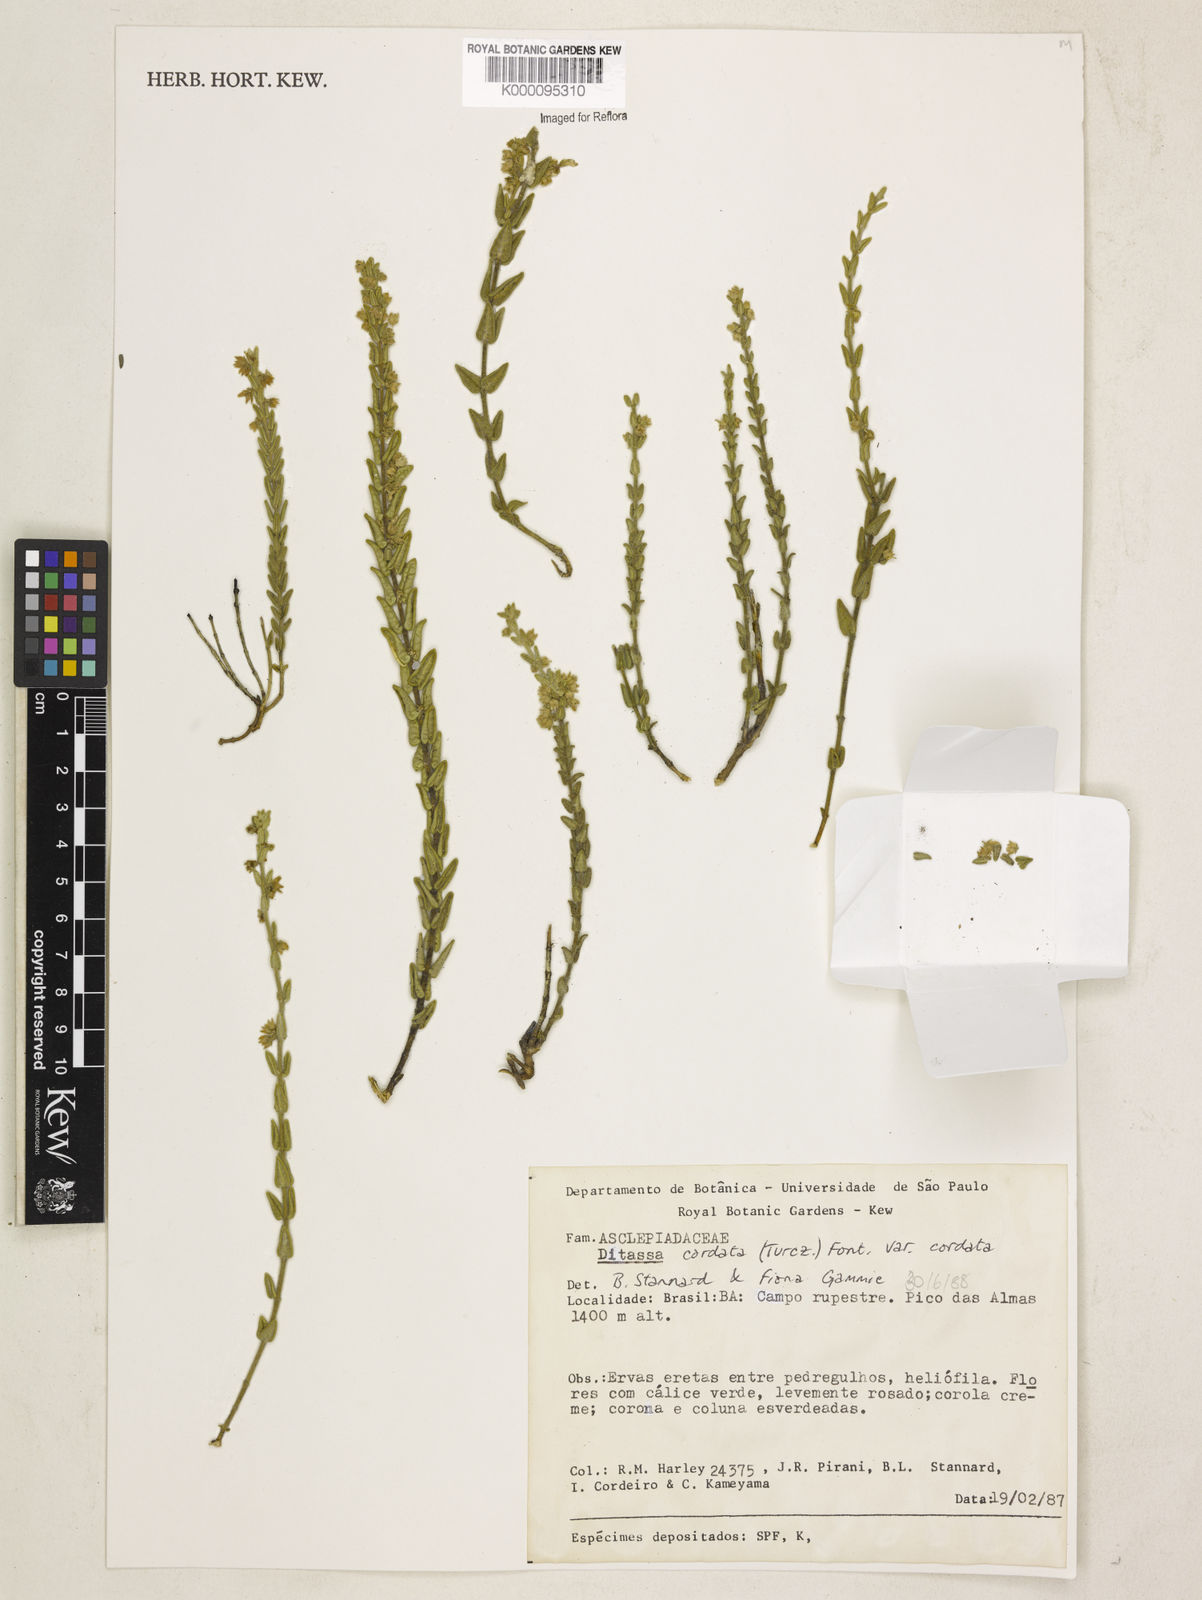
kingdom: Plantae
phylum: Tracheophyta
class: Magnoliopsida
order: Gentianales
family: Apocynaceae
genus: Minaria
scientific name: Minaria cordata
